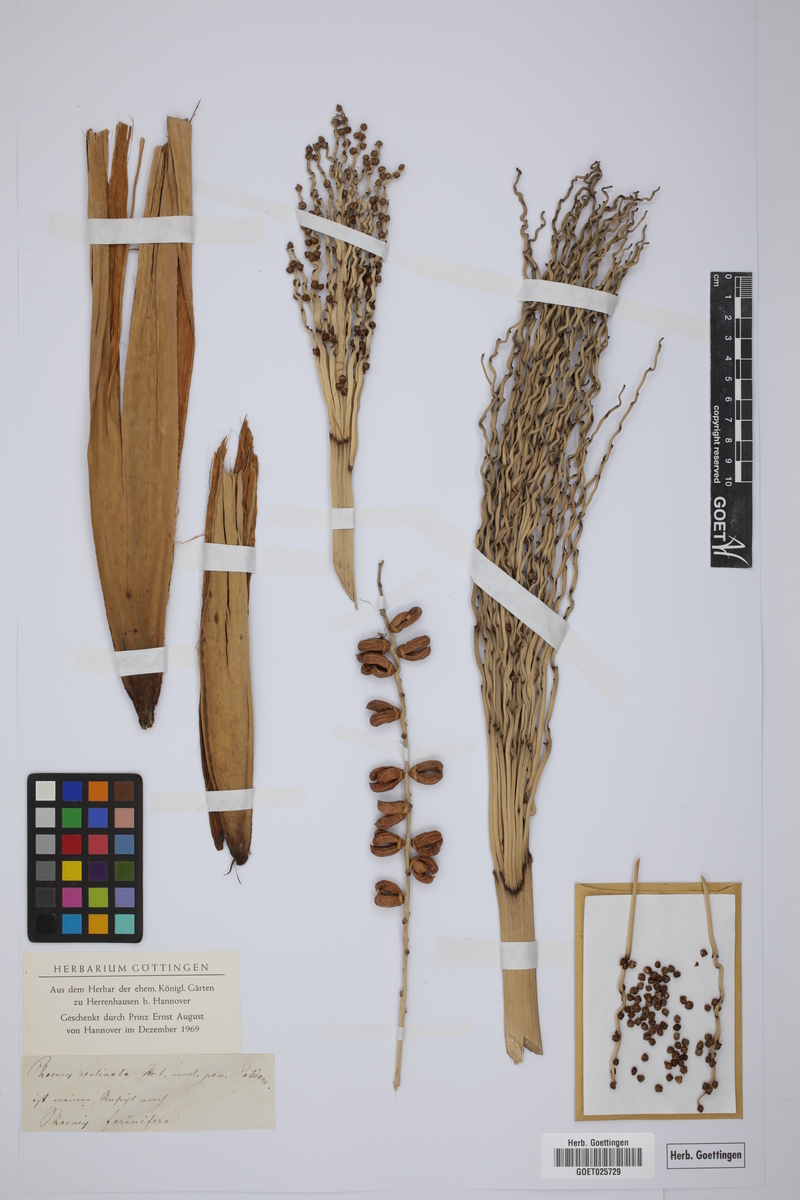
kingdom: Plantae
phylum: Tracheophyta
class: Liliopsida
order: Arecales
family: Arecaceae
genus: Phoenix
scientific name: Phoenix reclinata
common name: Senegal date palm
